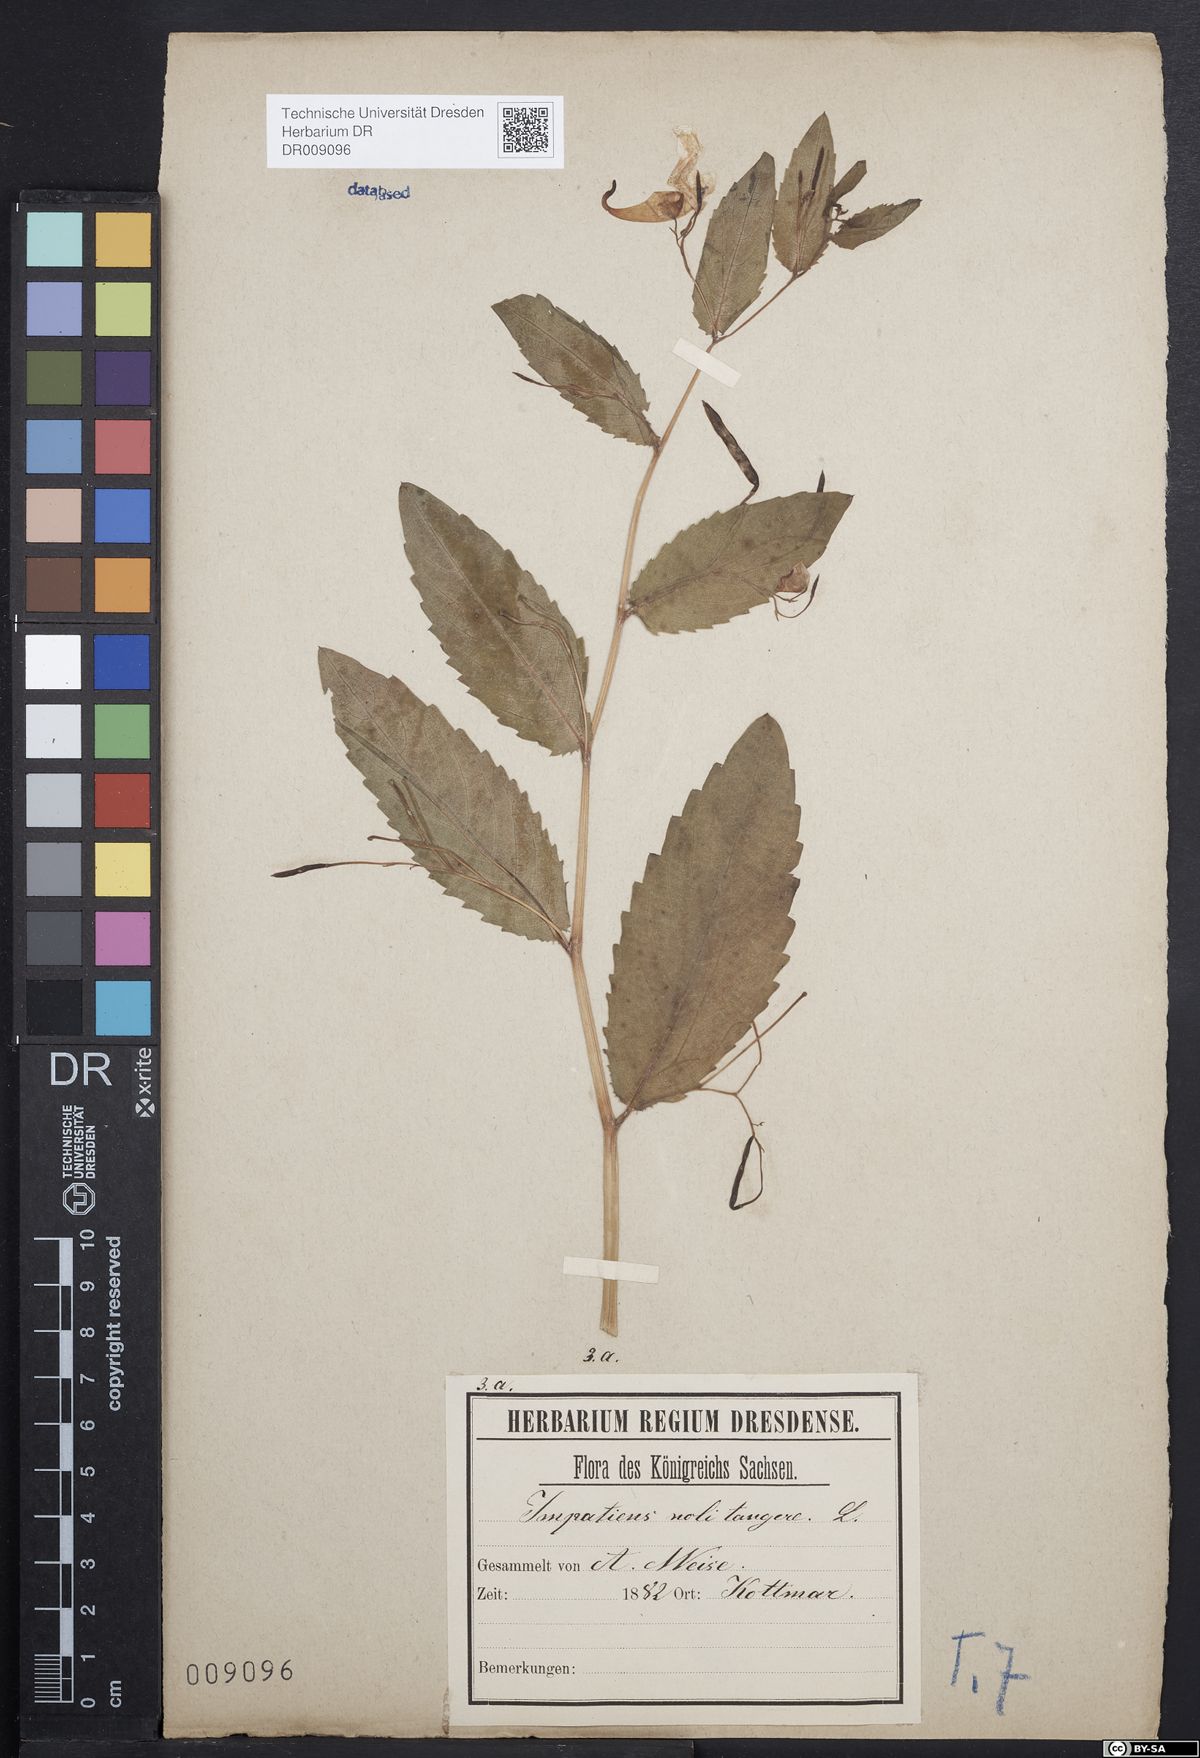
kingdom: Plantae
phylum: Tracheophyta
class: Magnoliopsida
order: Ericales
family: Balsaminaceae
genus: Impatiens
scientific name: Impatiens noli-tangere
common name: Touch-me-not balsam
